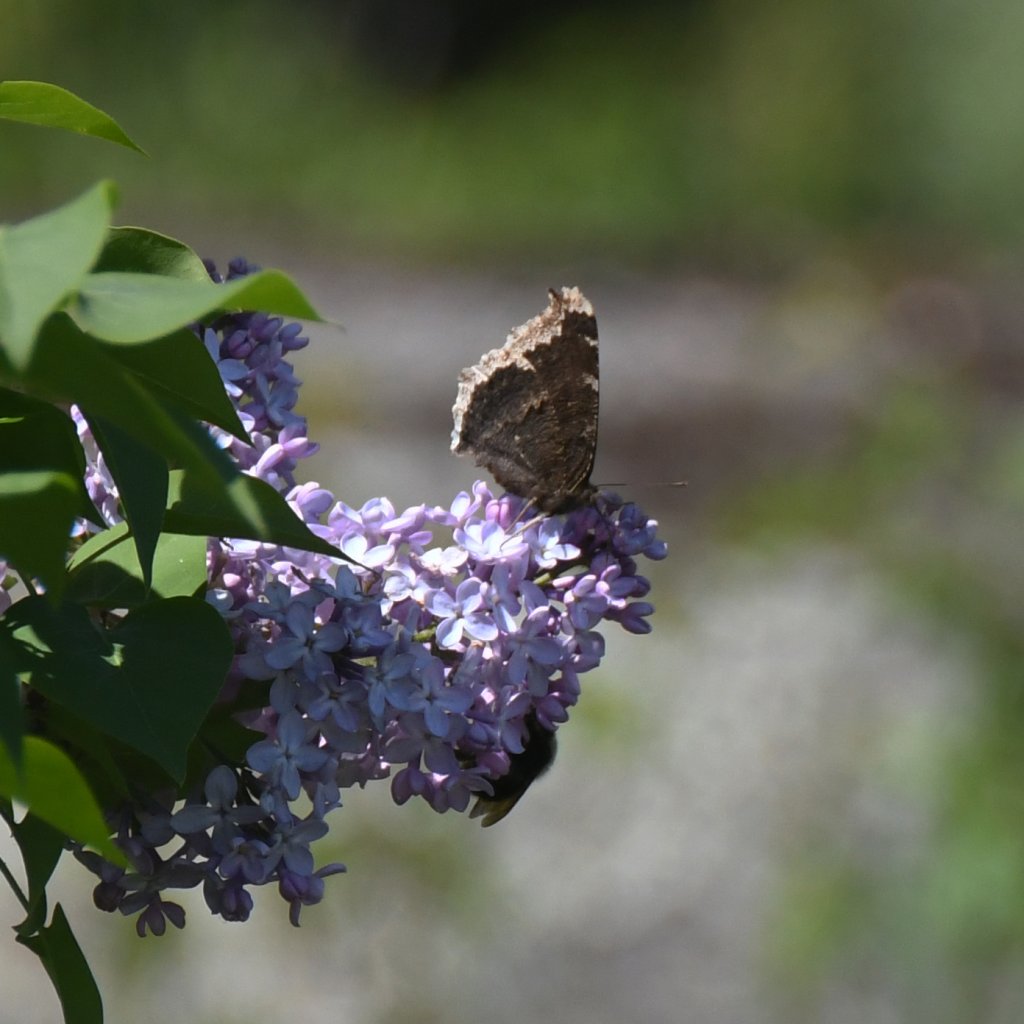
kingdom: Animalia
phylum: Arthropoda
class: Insecta
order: Lepidoptera
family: Nymphalidae
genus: Nymphalis
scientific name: Nymphalis antiopa
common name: Mourning Cloak
